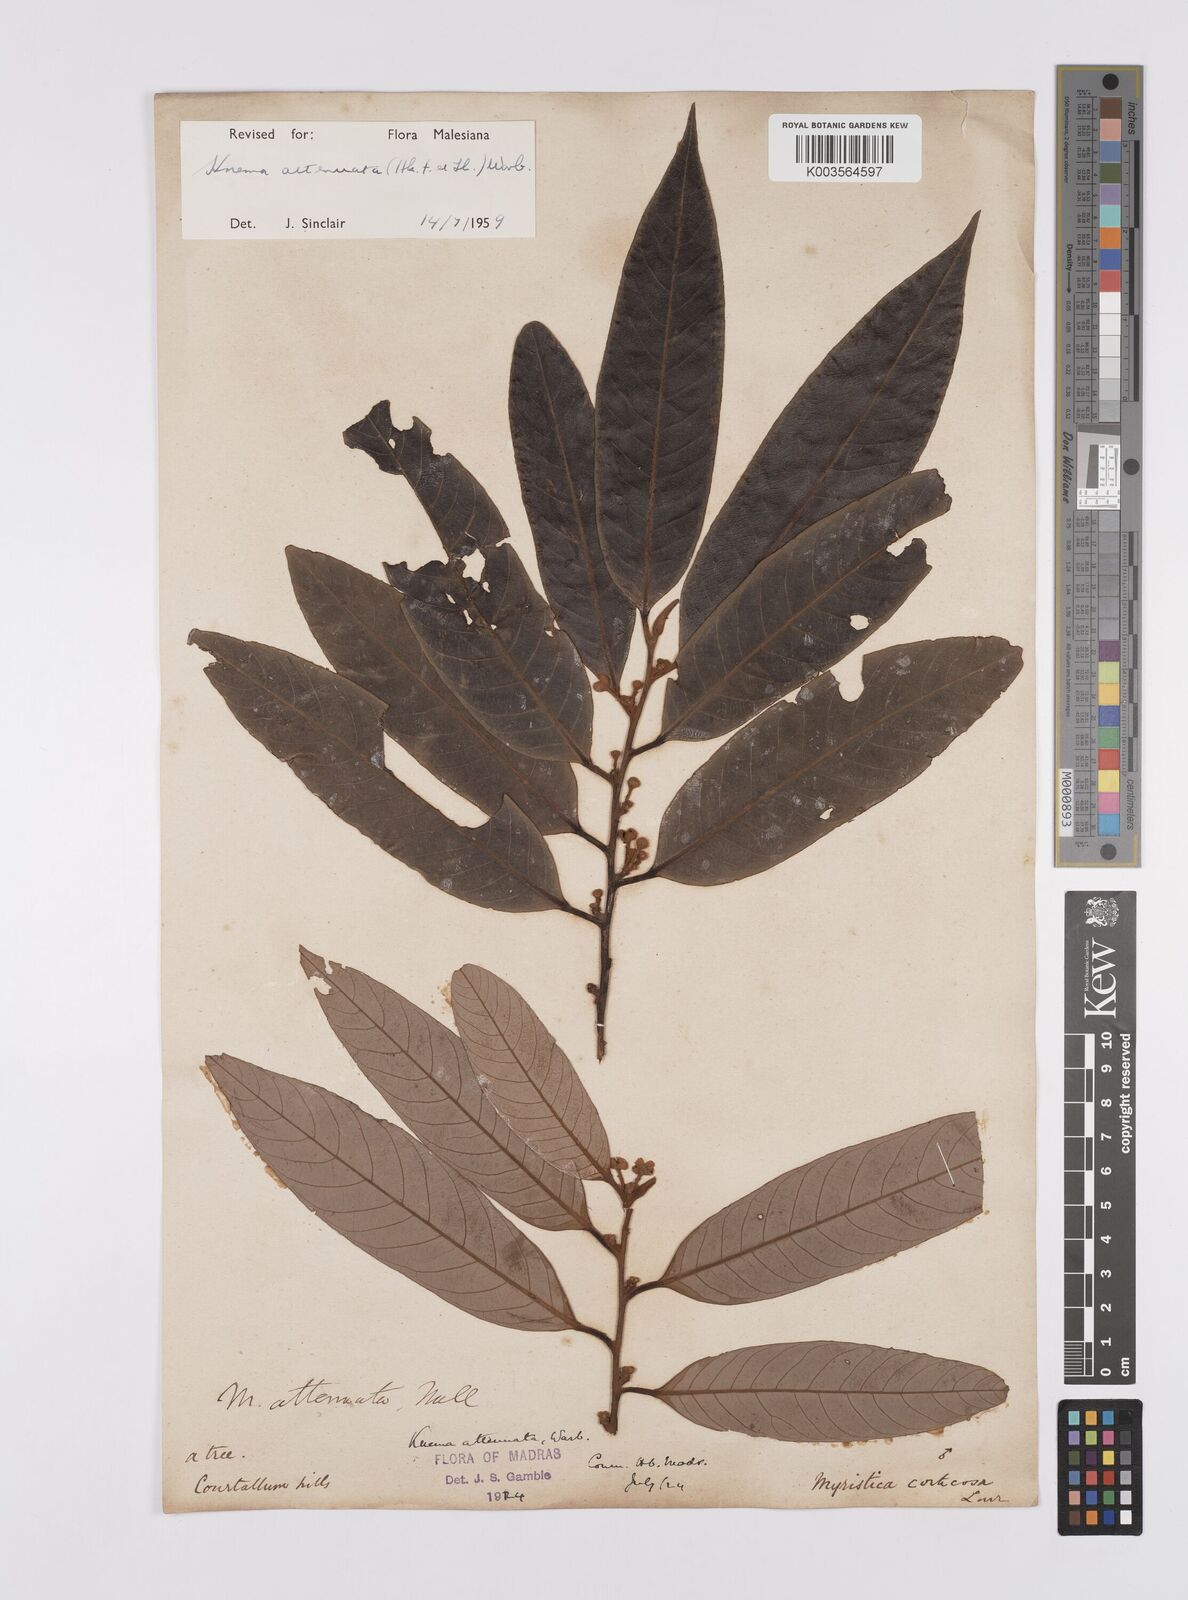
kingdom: Plantae
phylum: Tracheophyta
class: Magnoliopsida
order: Magnoliales
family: Myristicaceae
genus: Knema
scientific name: Knema attenuata
